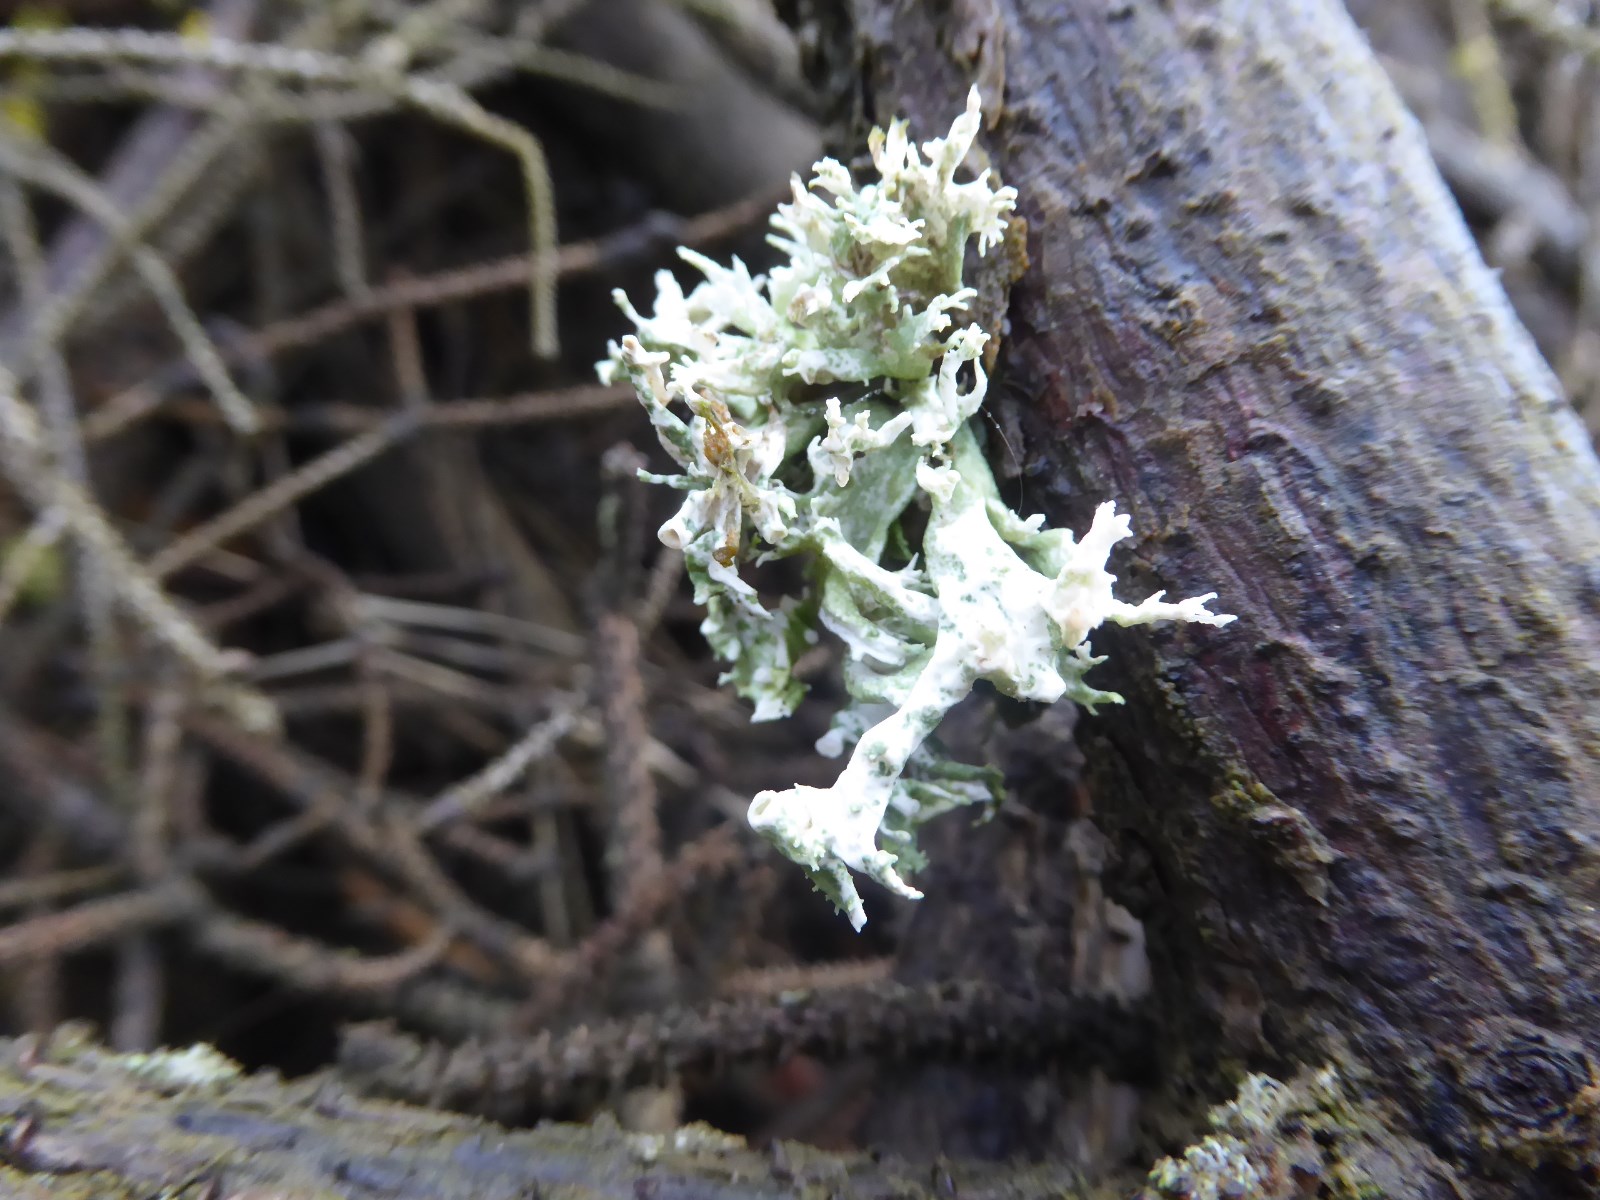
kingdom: Fungi
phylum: Ascomycota
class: Lecanoromycetes
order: Lecanorales
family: Ramalinaceae
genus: Ramalina
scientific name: Ramalina fastigiata
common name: tue-grenlav
